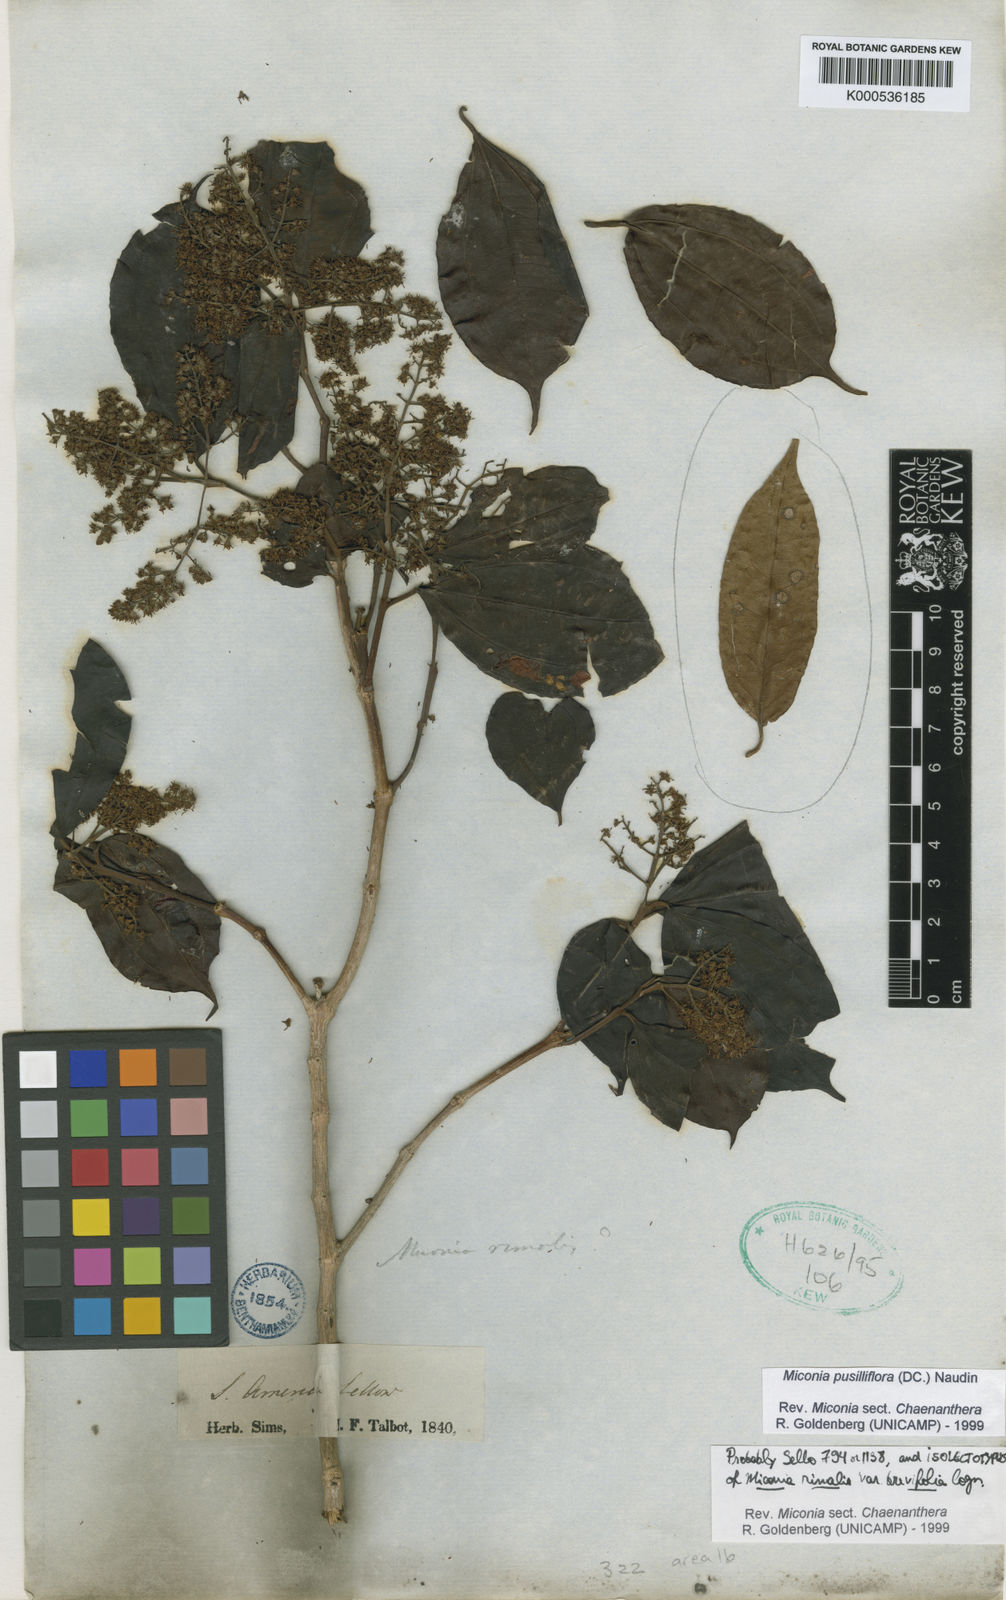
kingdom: Plantae
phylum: Tracheophyta
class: Magnoliopsida
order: Myrtales
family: Melastomataceae
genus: Miconia
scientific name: Miconia pusilliflora
